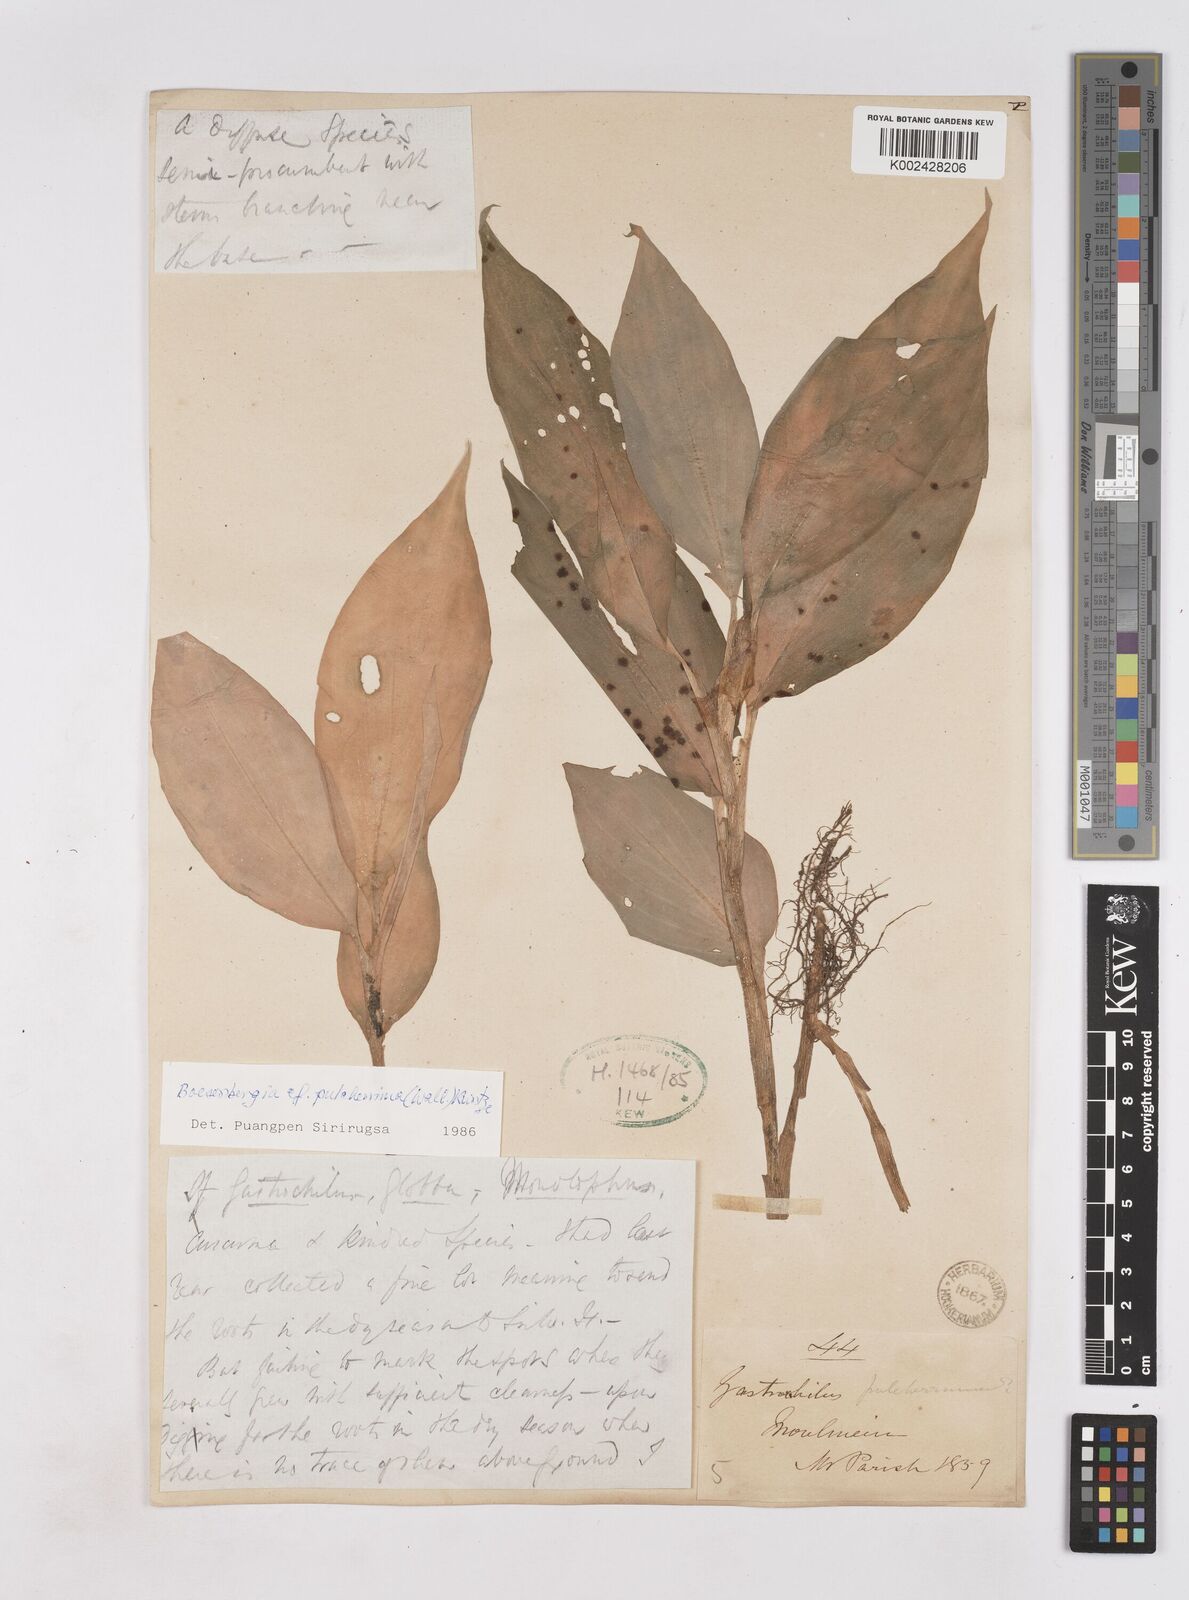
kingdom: Plantae
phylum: Tracheophyta
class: Liliopsida
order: Zingiberales
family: Zingiberaceae
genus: Boesenbergia
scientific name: Boesenbergia pulcherrima
